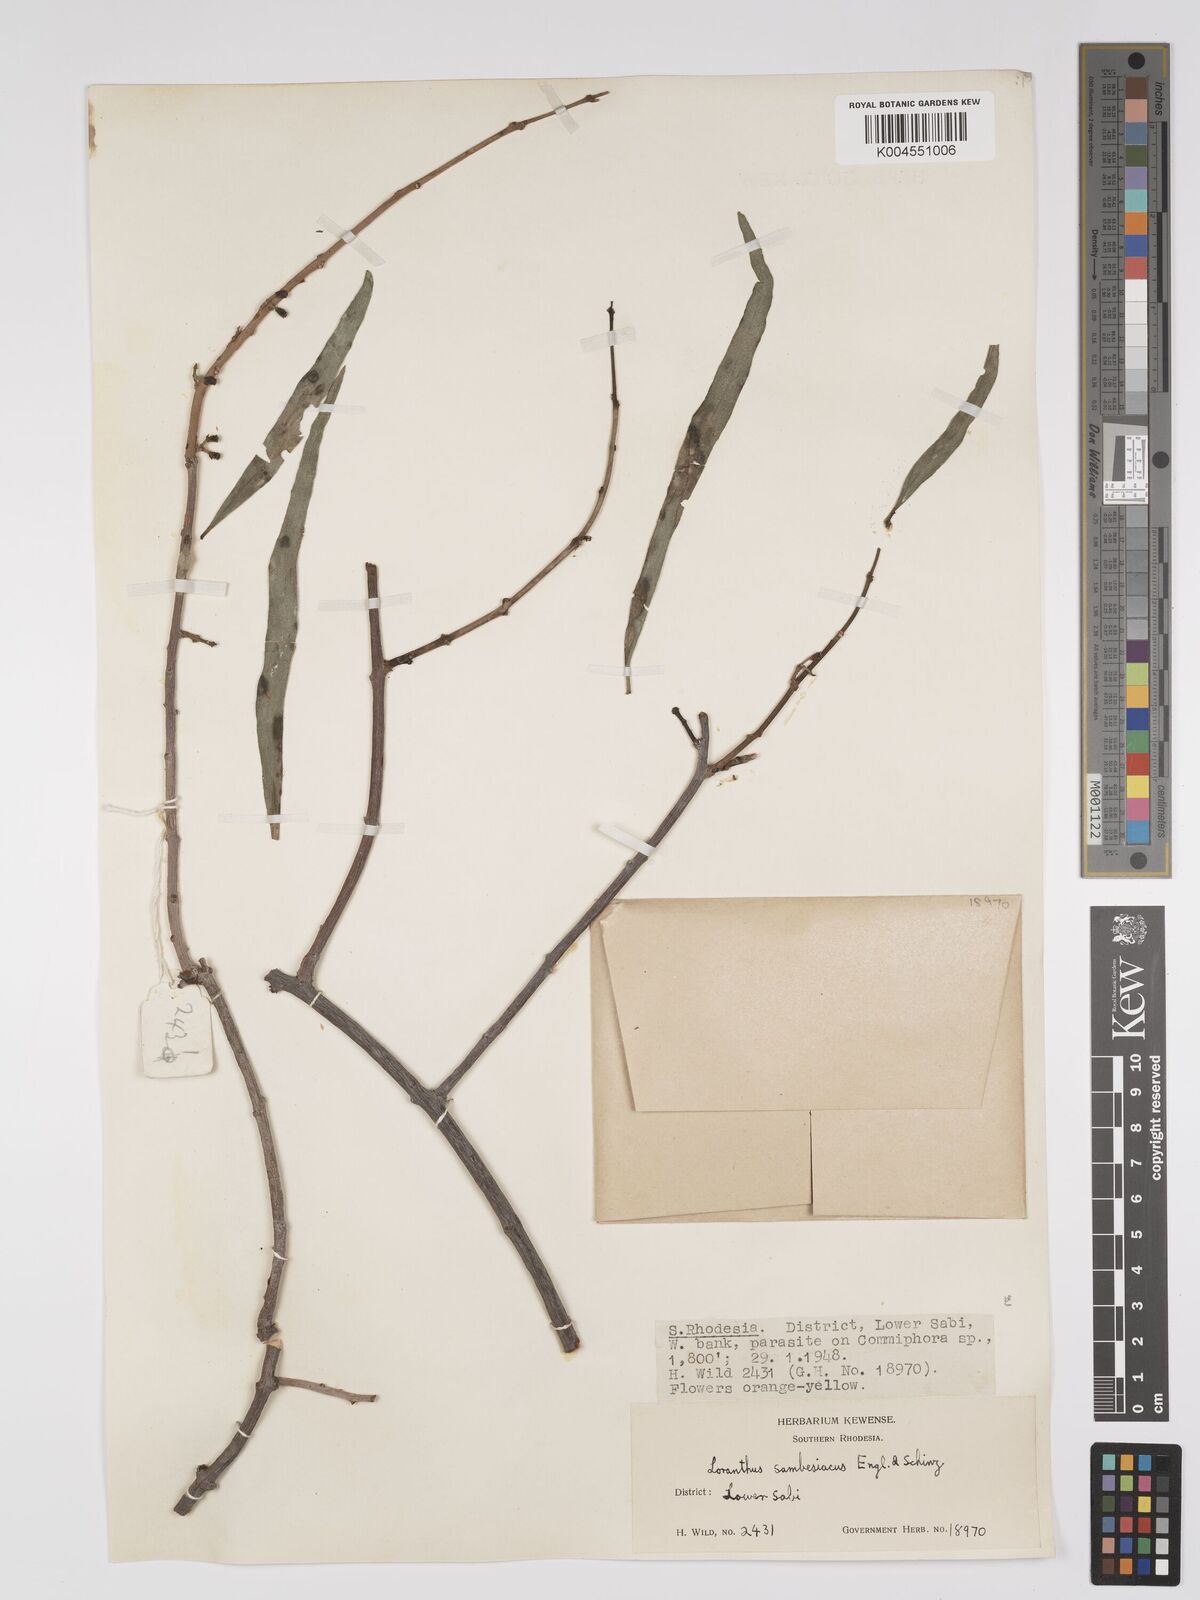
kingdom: Plantae
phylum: Tracheophyta
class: Magnoliopsida
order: Santalales
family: Loranthaceae
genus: Agelanthus
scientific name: Agelanthus sambesiacus
